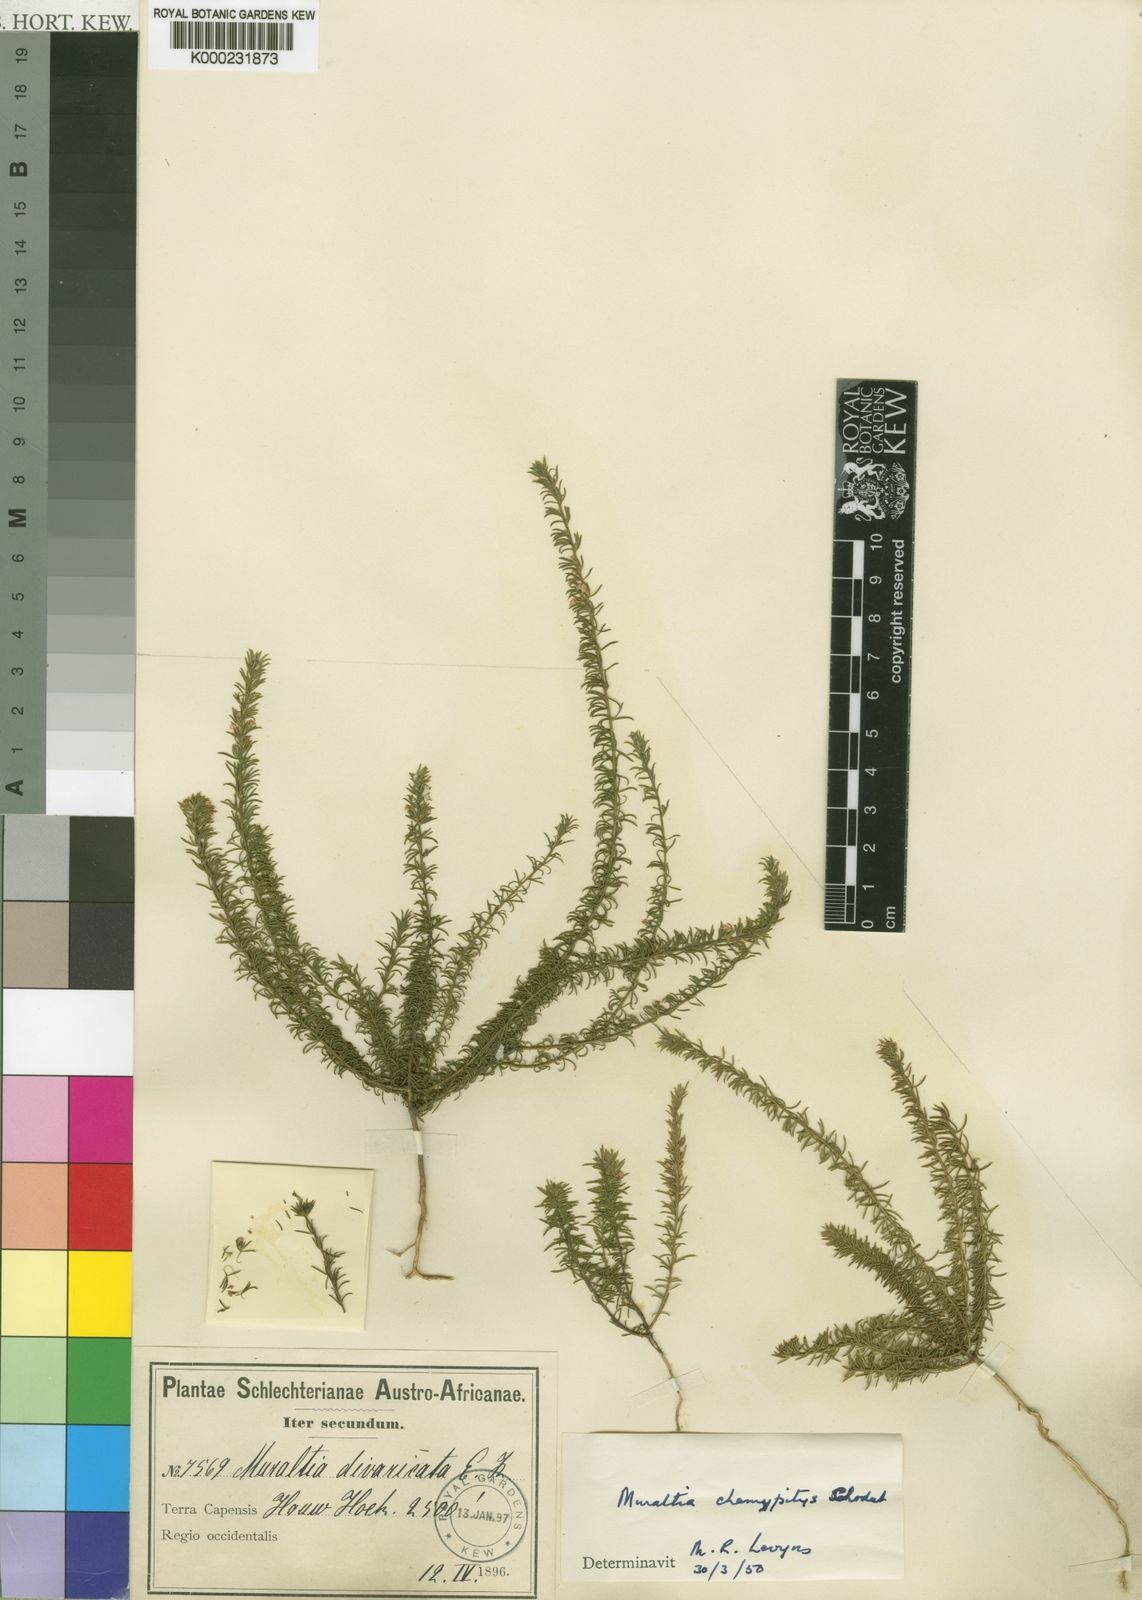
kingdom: Plantae
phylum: Tracheophyta
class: Magnoliopsida
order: Fabales
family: Polygalaceae
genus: Muraltia
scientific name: Muraltia chamaepitys
